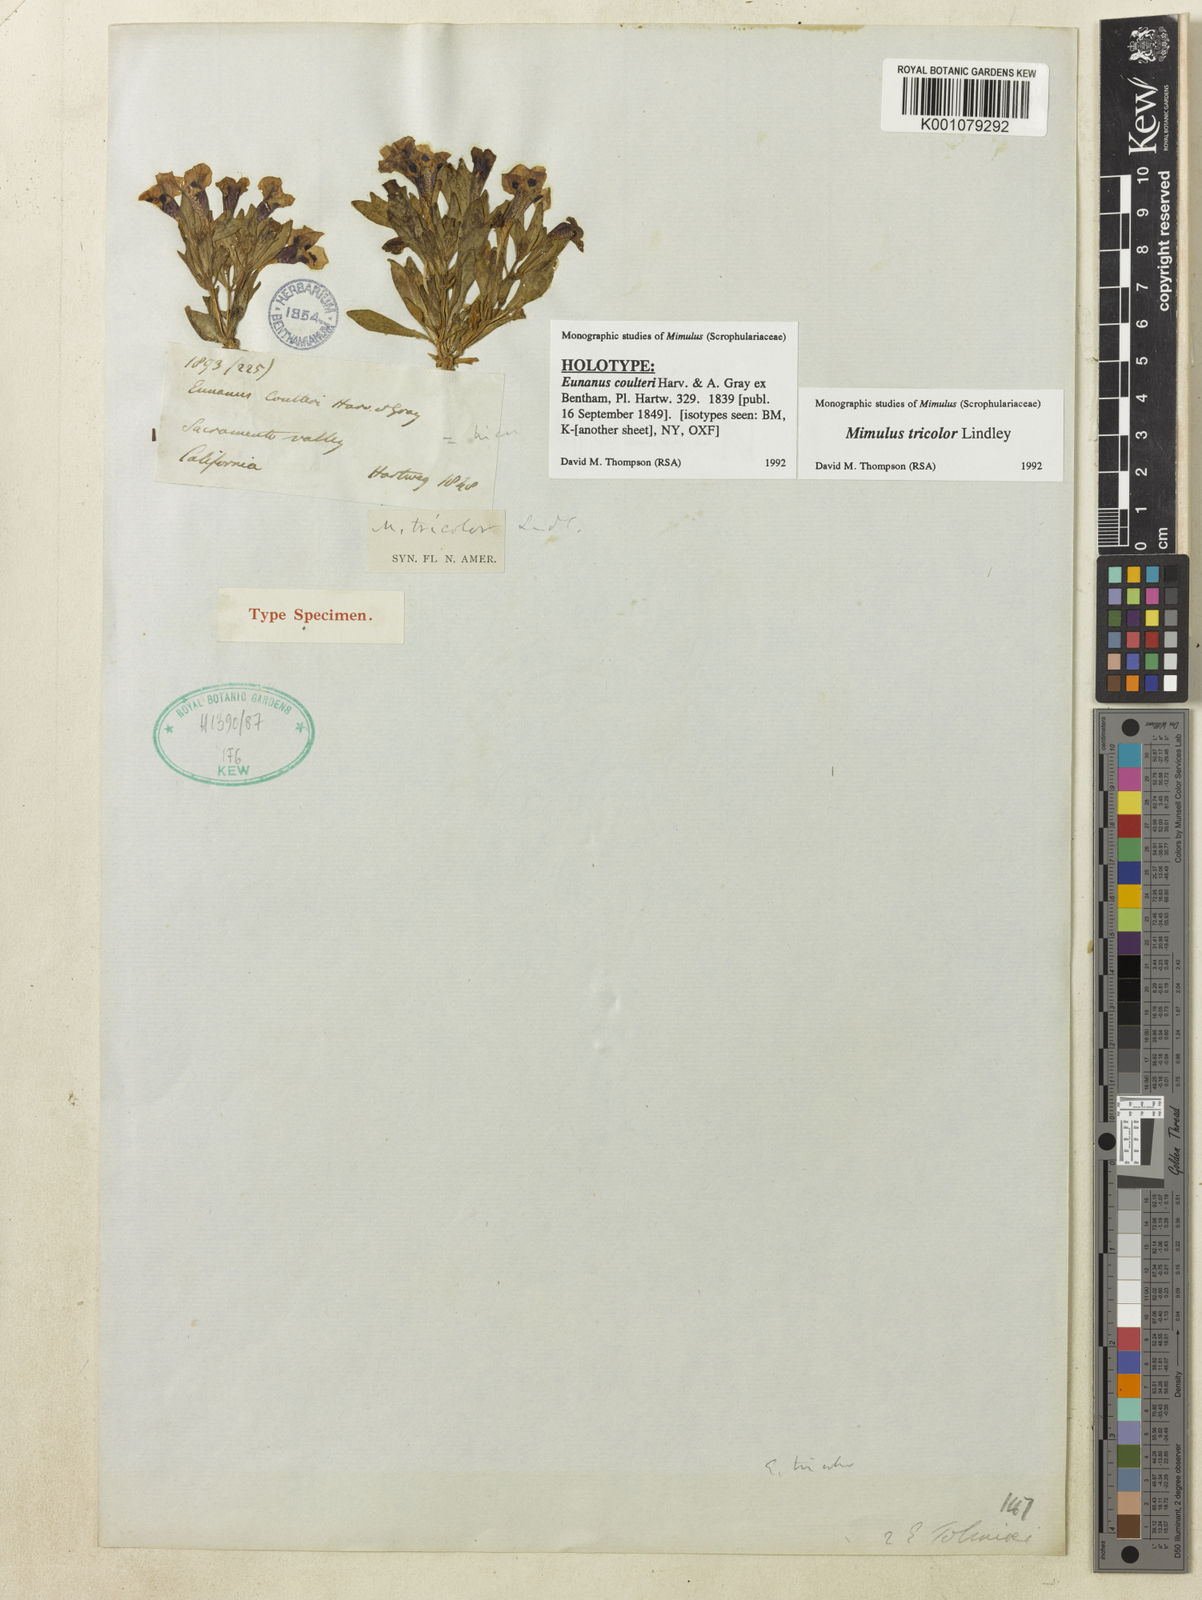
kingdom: Plantae
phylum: Tracheophyta
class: Magnoliopsida
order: Lamiales
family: Phrymaceae
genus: Diplacus
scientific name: Diplacus tricolor
